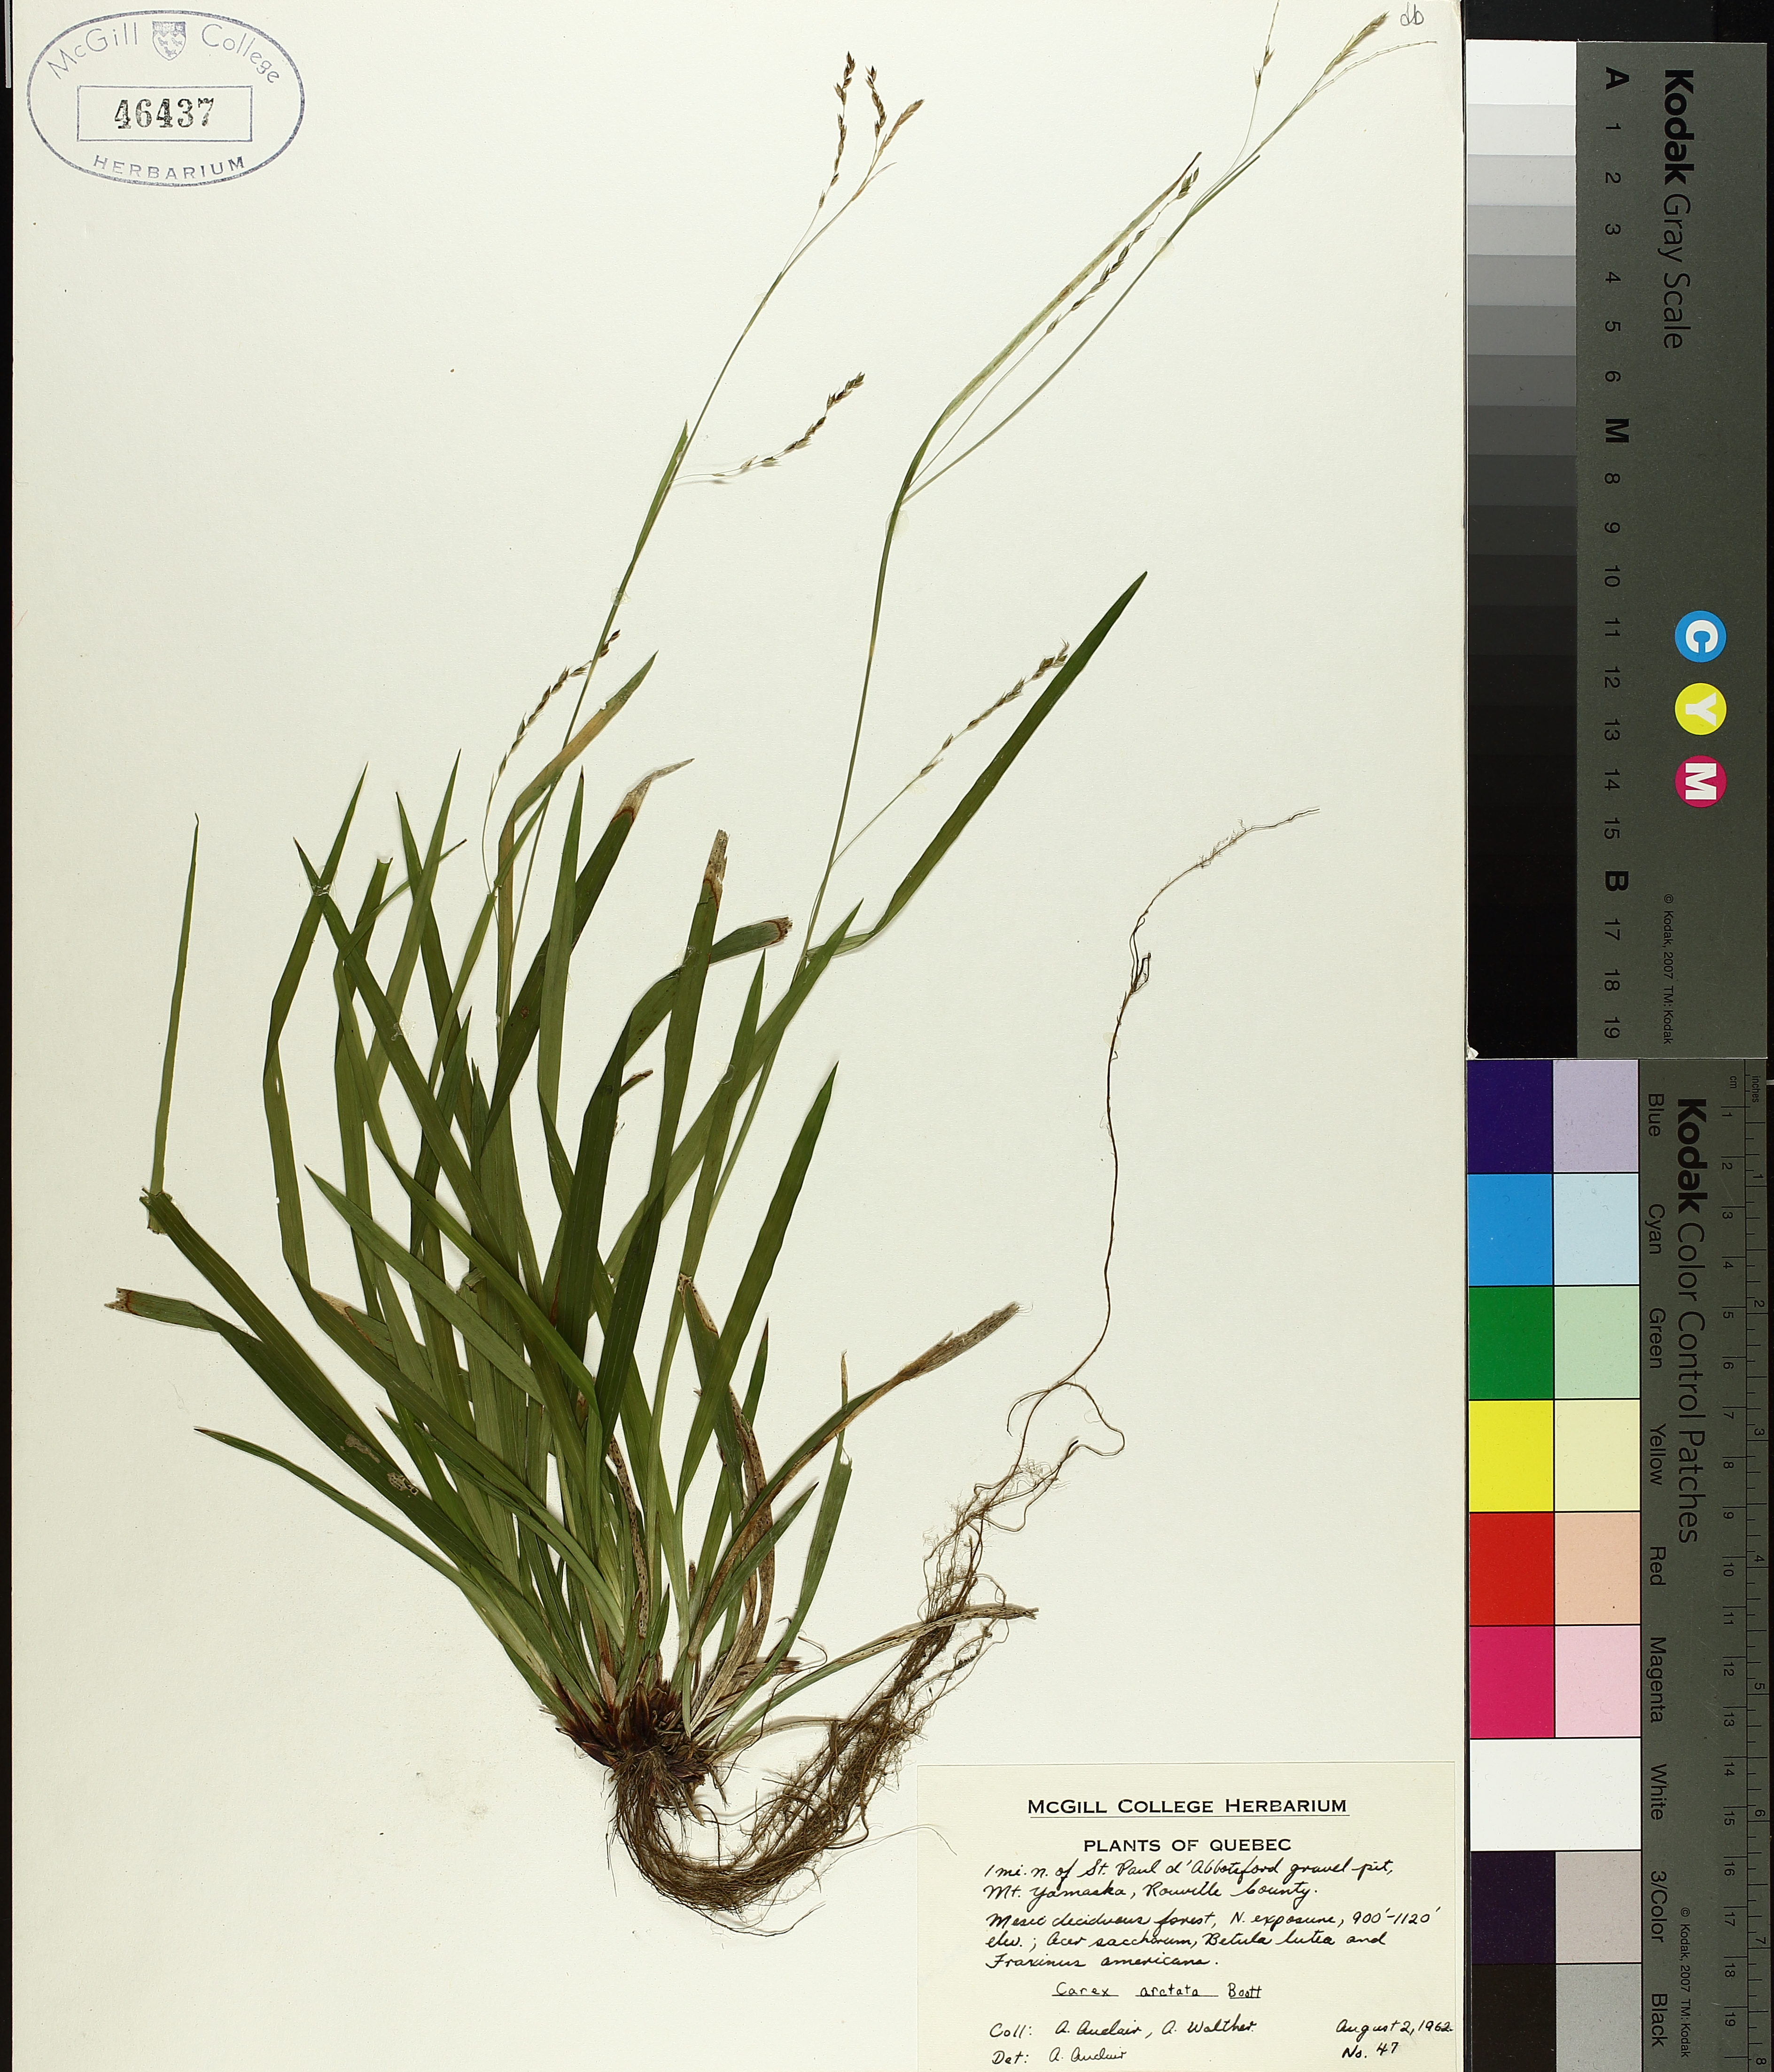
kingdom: Plantae
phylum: Tracheophyta
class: Liliopsida
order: Poales
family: Cyperaceae
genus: Carex
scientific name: Carex arctata
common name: Black sedge
